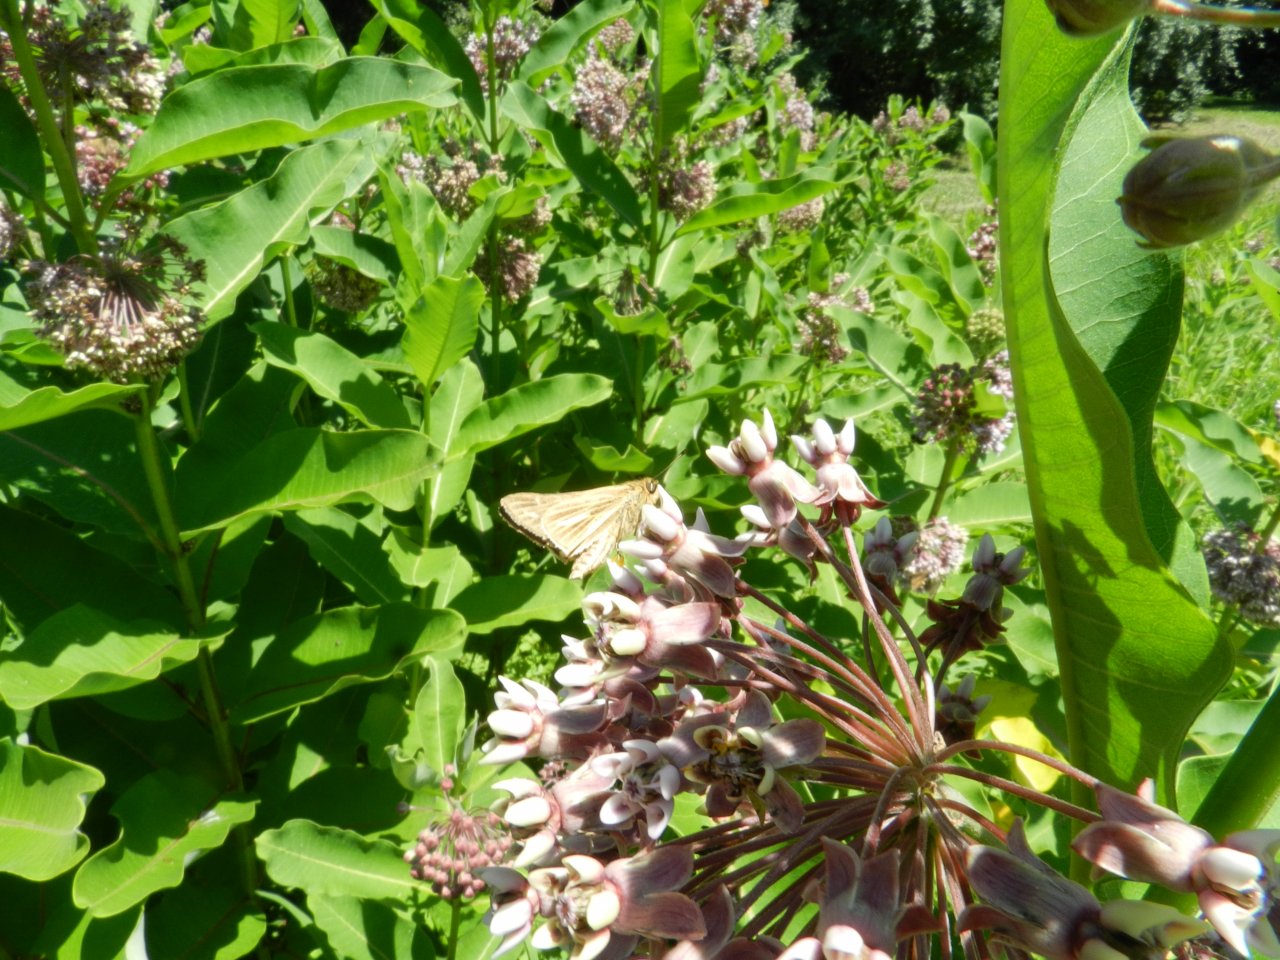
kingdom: Animalia
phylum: Arthropoda
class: Insecta
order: Lepidoptera
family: Hesperiidae
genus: Panoquina
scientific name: Panoquina panoquin
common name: Salt Marsh Skipper
